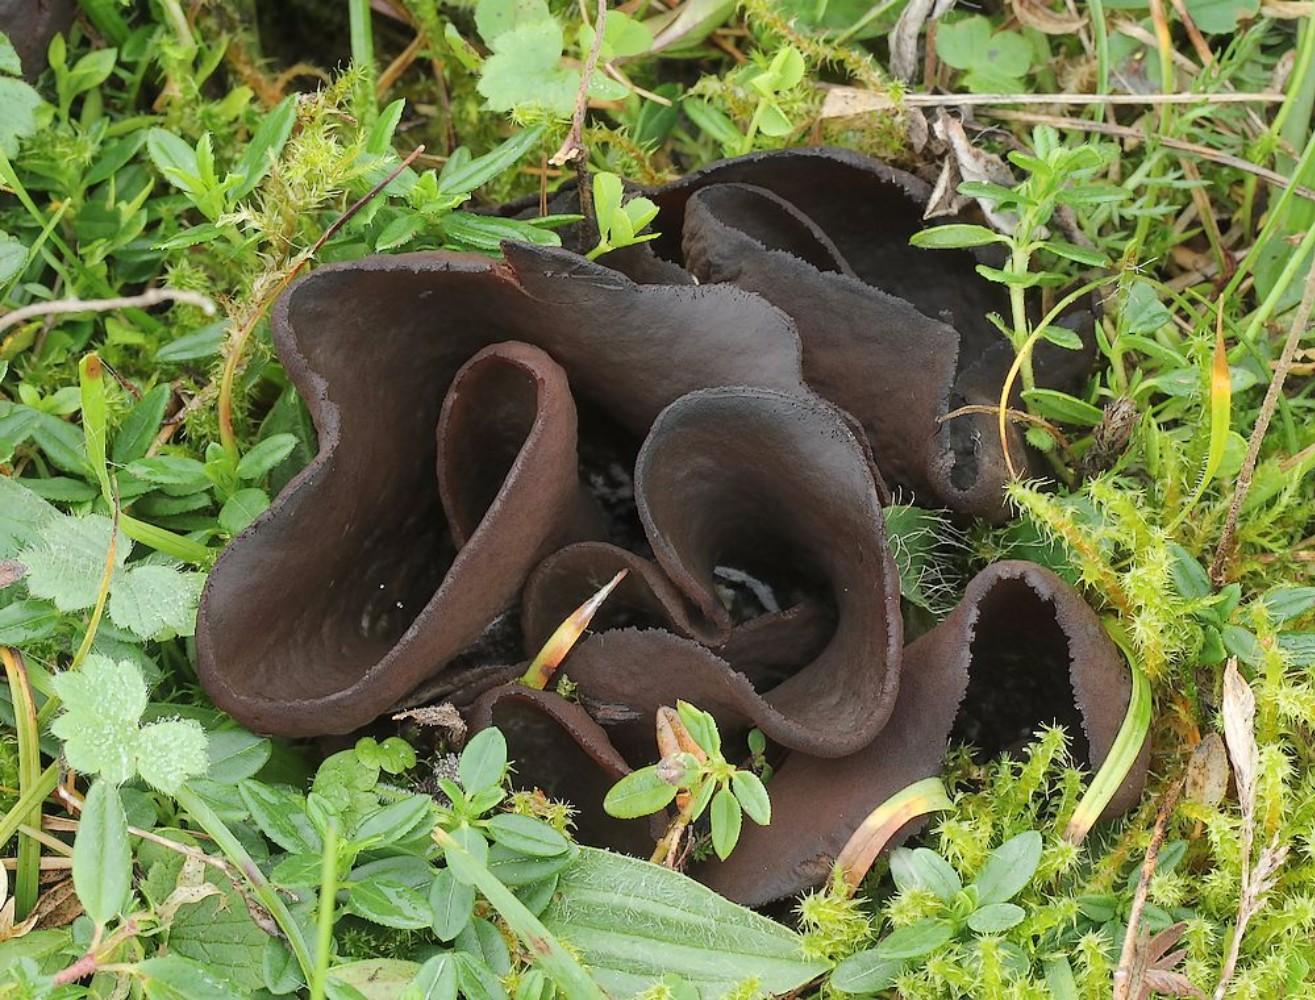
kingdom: Fungi
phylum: Ascomycota
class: Pezizomycetes
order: Pezizales
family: Otideaceae
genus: Otidea
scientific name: Otidea bufonia
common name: brun ørebæger
